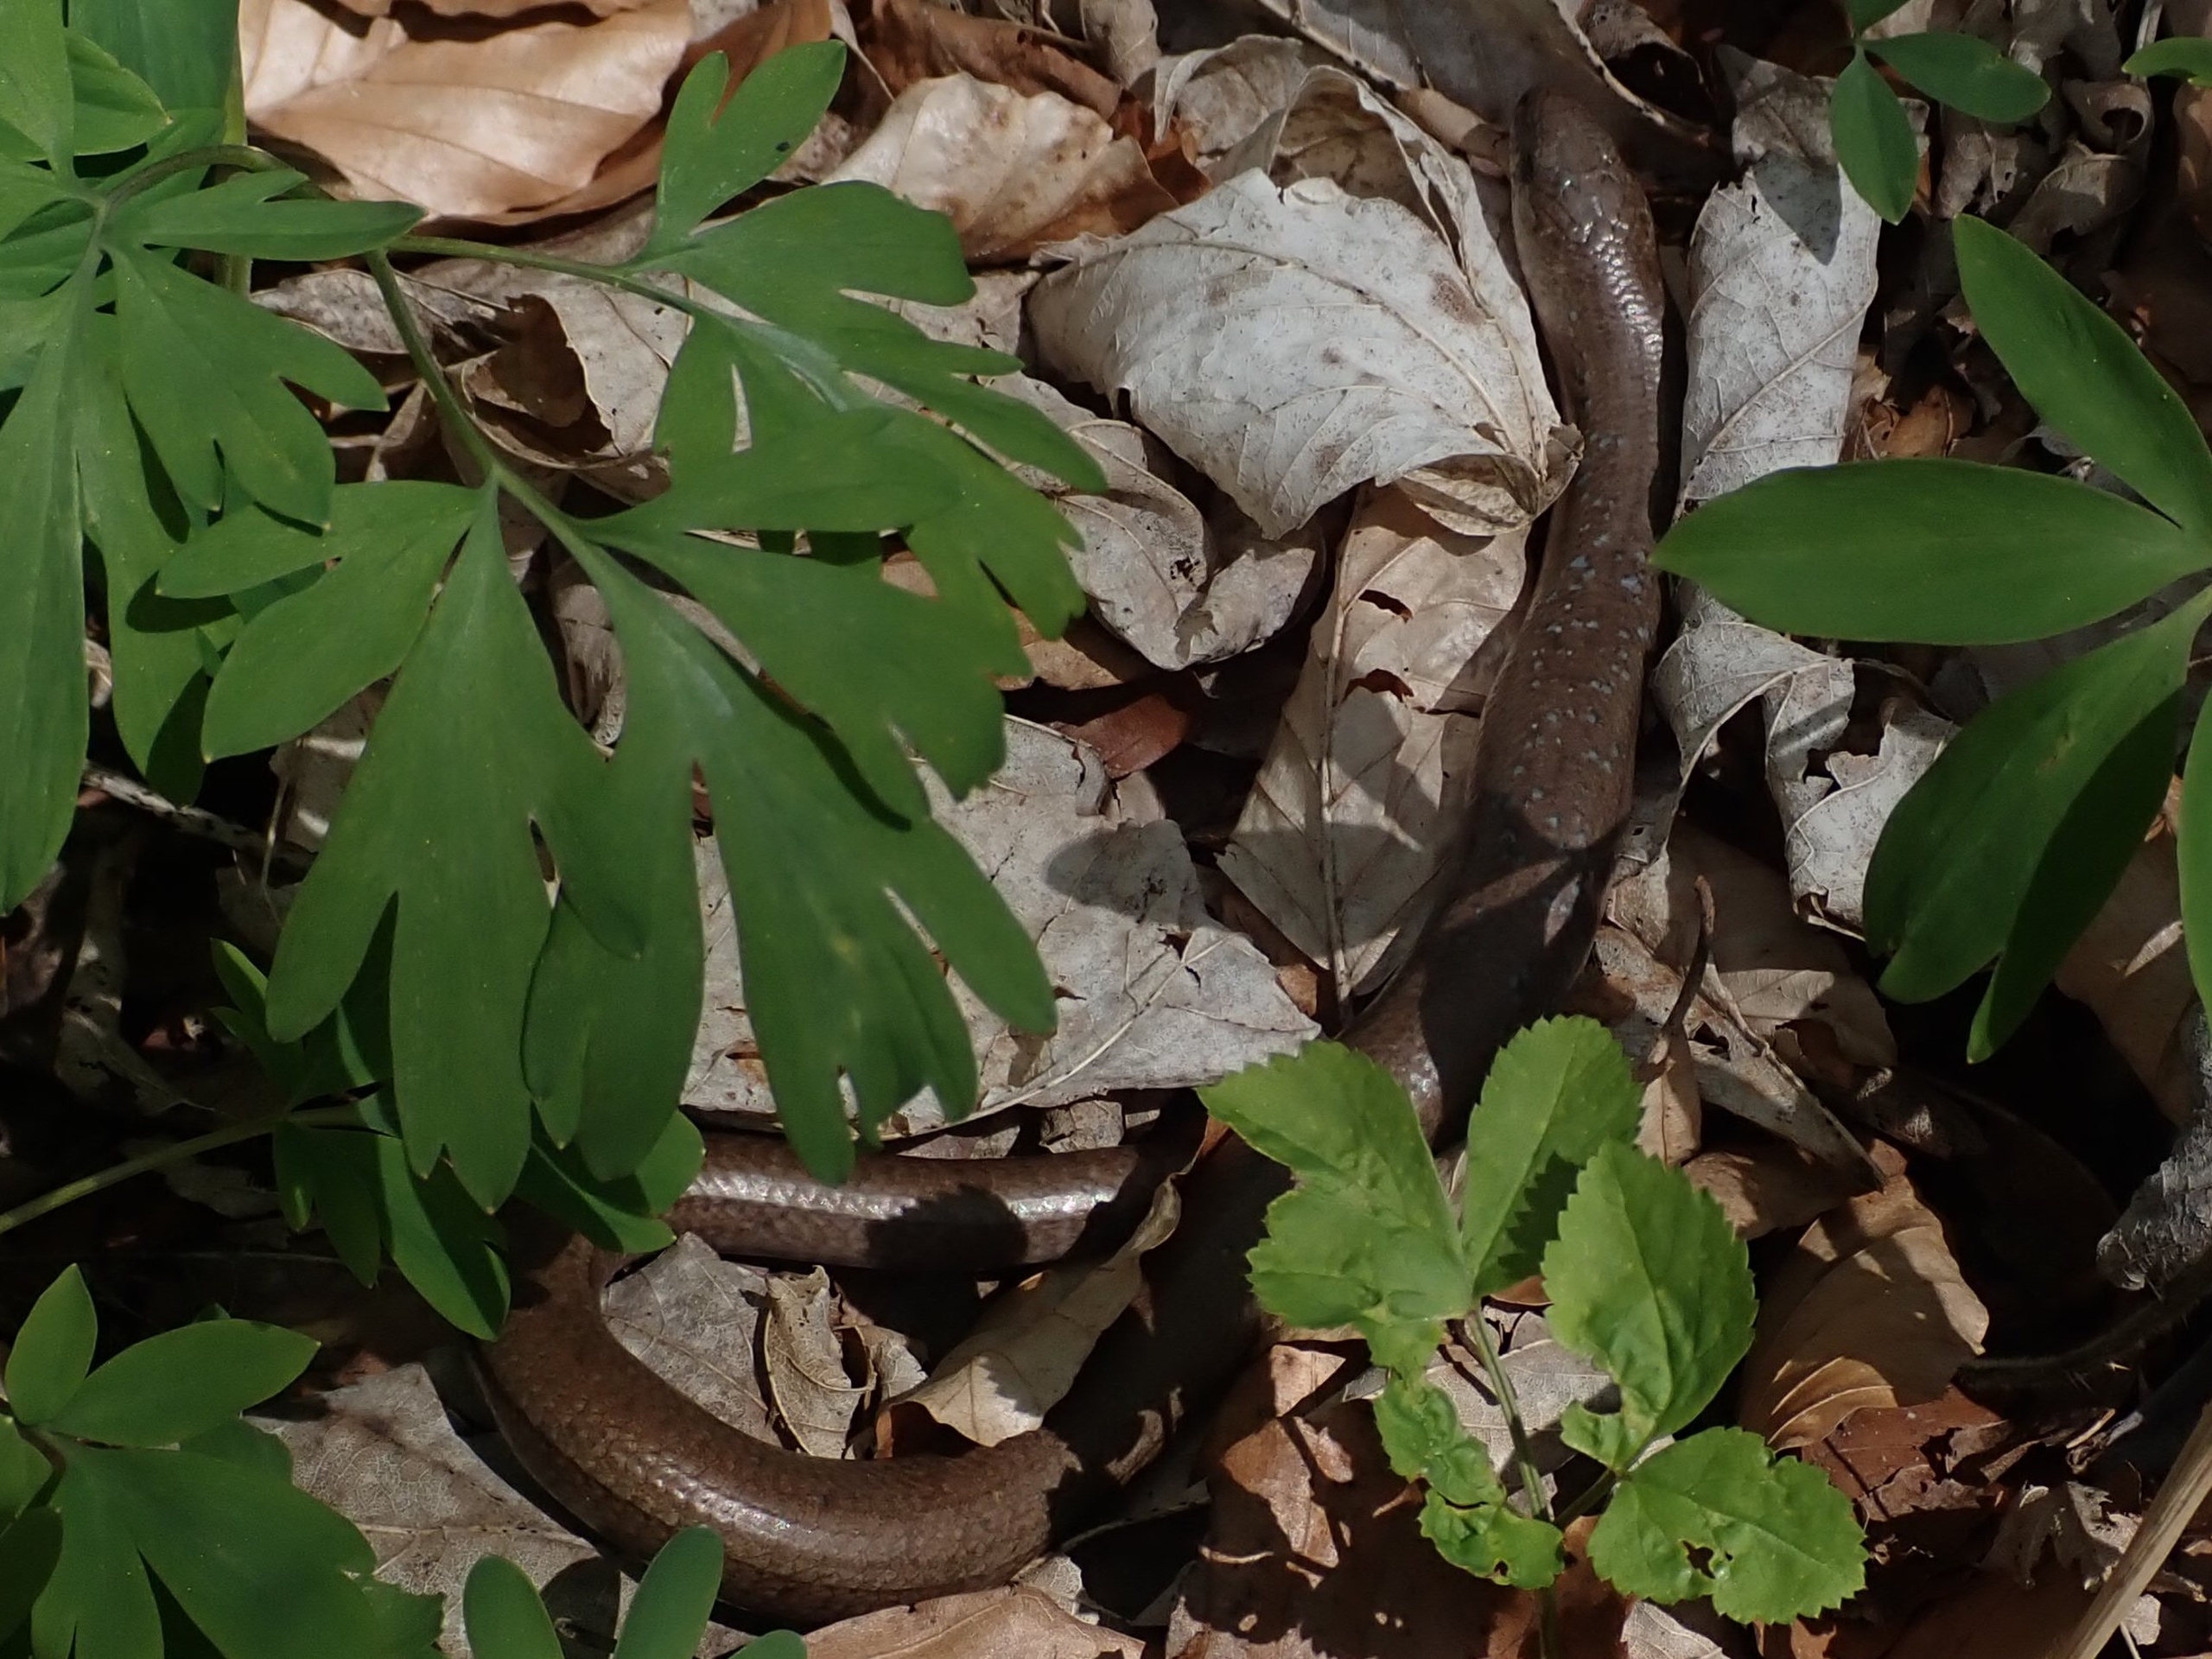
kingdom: Animalia
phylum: Chordata
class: Squamata
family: Anguidae
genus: Anguis
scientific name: Anguis fragilis
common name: Stålorm
